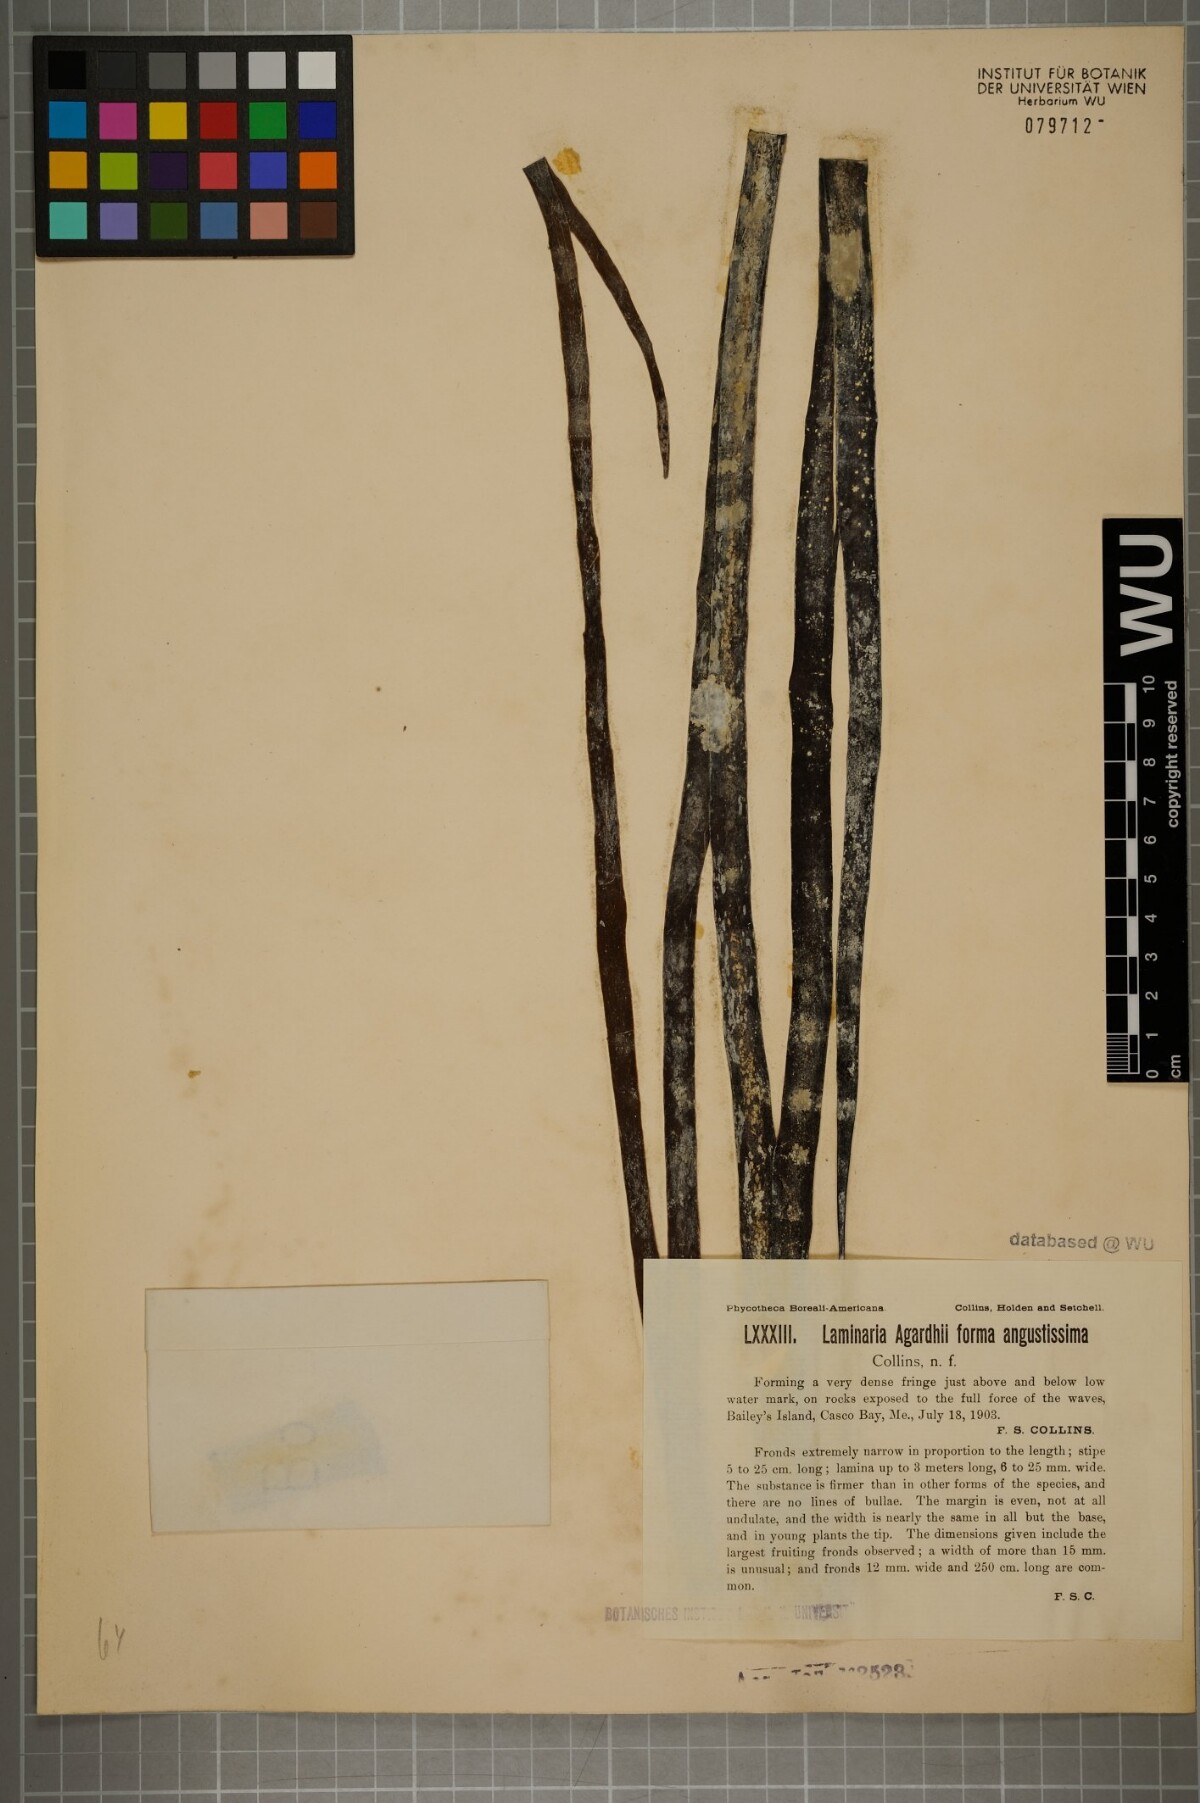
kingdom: Chromista
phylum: Ochrophyta
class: Phaeophyceae
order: Laminariales
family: Laminariaceae
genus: Saccharina
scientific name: Saccharina latissima
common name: Poor man's weather glass
